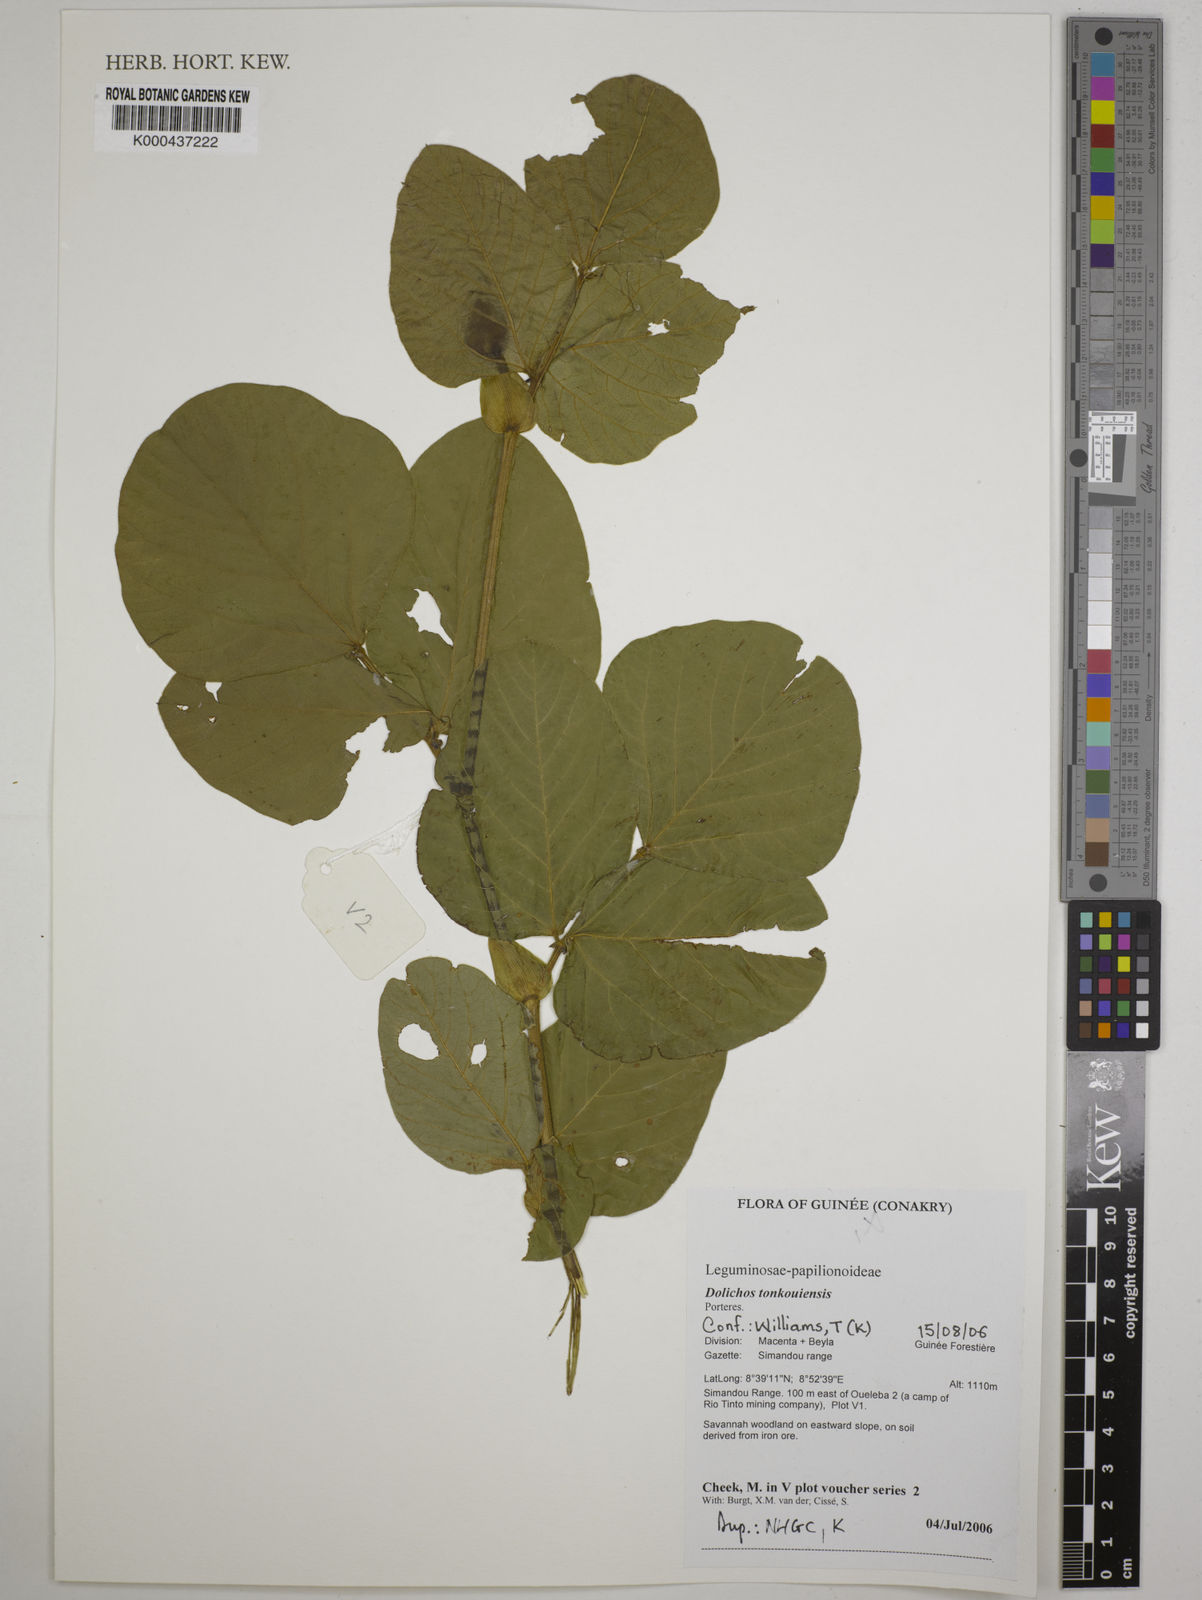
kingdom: Plantae
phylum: Tracheophyta
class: Magnoliopsida
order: Fabales
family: Fabaceae
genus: Dolichos
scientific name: Dolichos tonkouiensis
